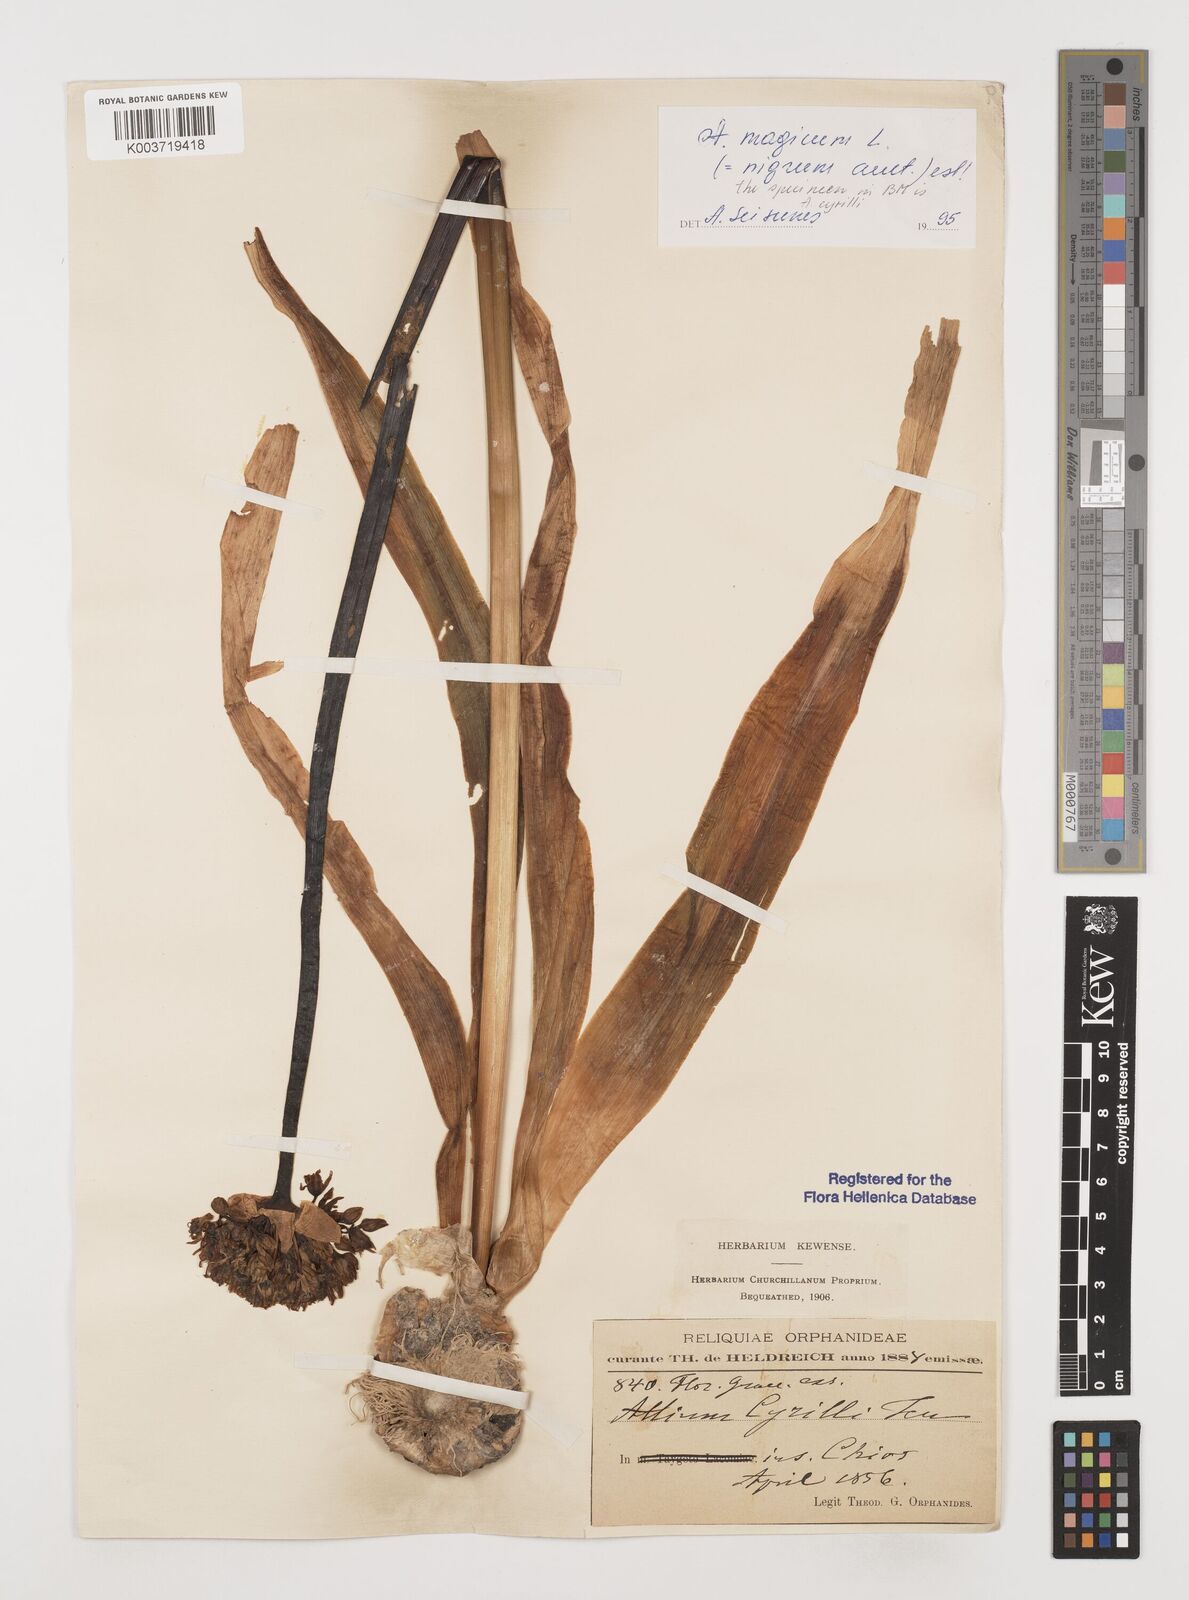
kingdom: Plantae
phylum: Tracheophyta
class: Liliopsida
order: Asparagales
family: Amaryllidaceae
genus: Allium
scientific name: Allium cyrilli
